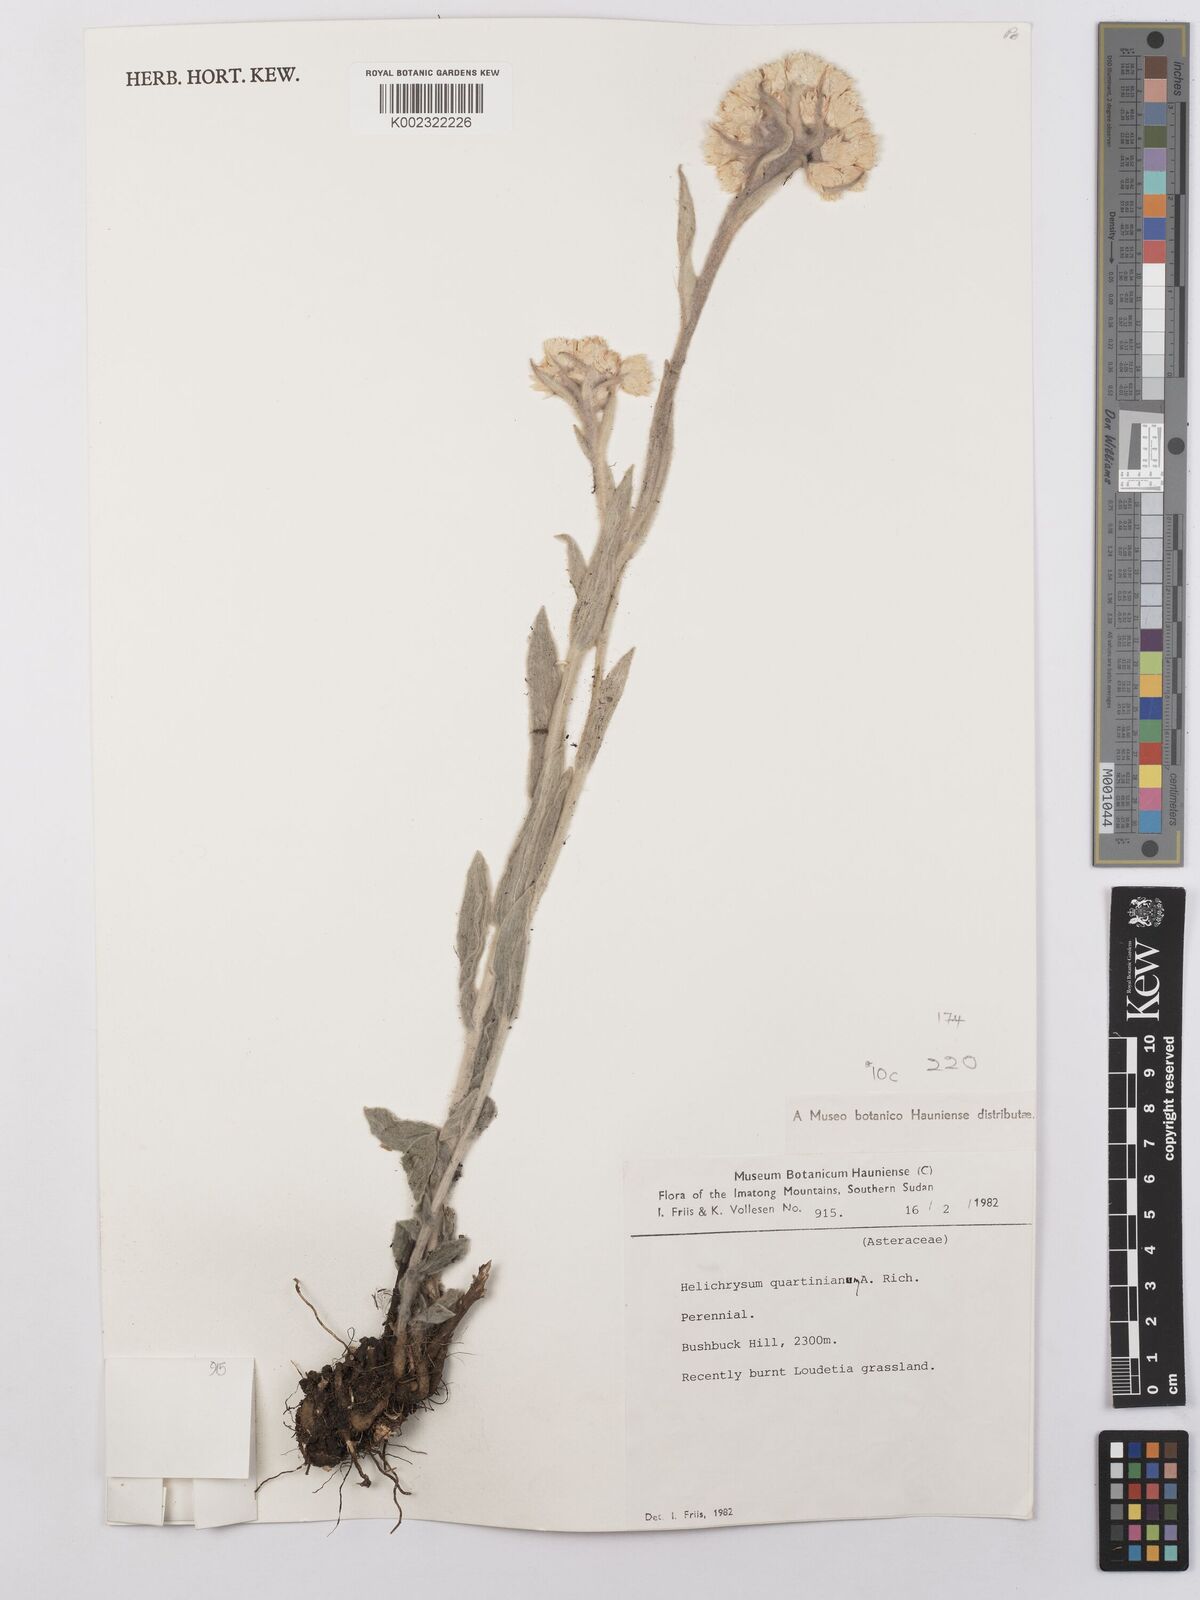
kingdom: Plantae
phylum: Tracheophyta
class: Magnoliopsida
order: Asterales
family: Asteraceae
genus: Helichrysum
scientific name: Helichrysum quartinianum
